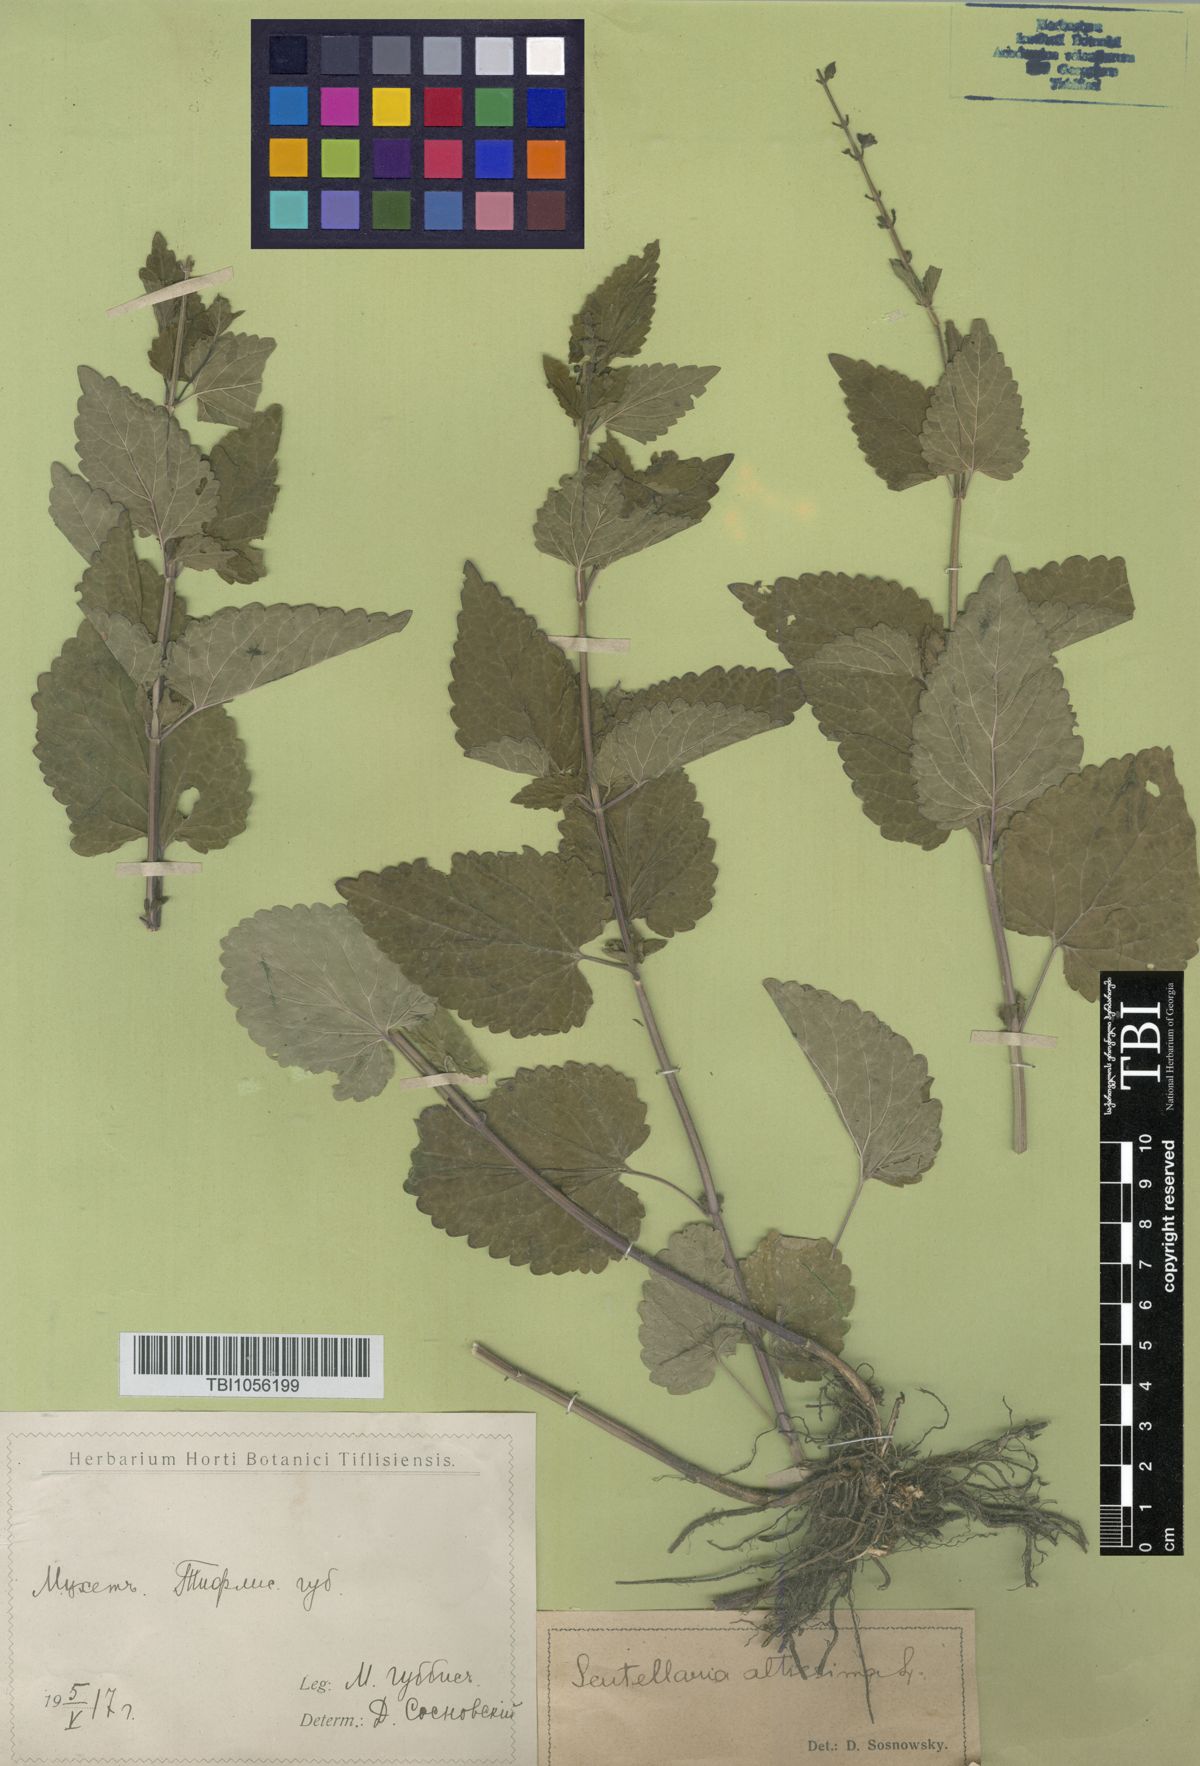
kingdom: Plantae
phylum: Tracheophyta
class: Magnoliopsida
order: Lamiales
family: Lamiaceae
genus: Scutellaria
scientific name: Scutellaria altissima
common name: Somerset skullcap
